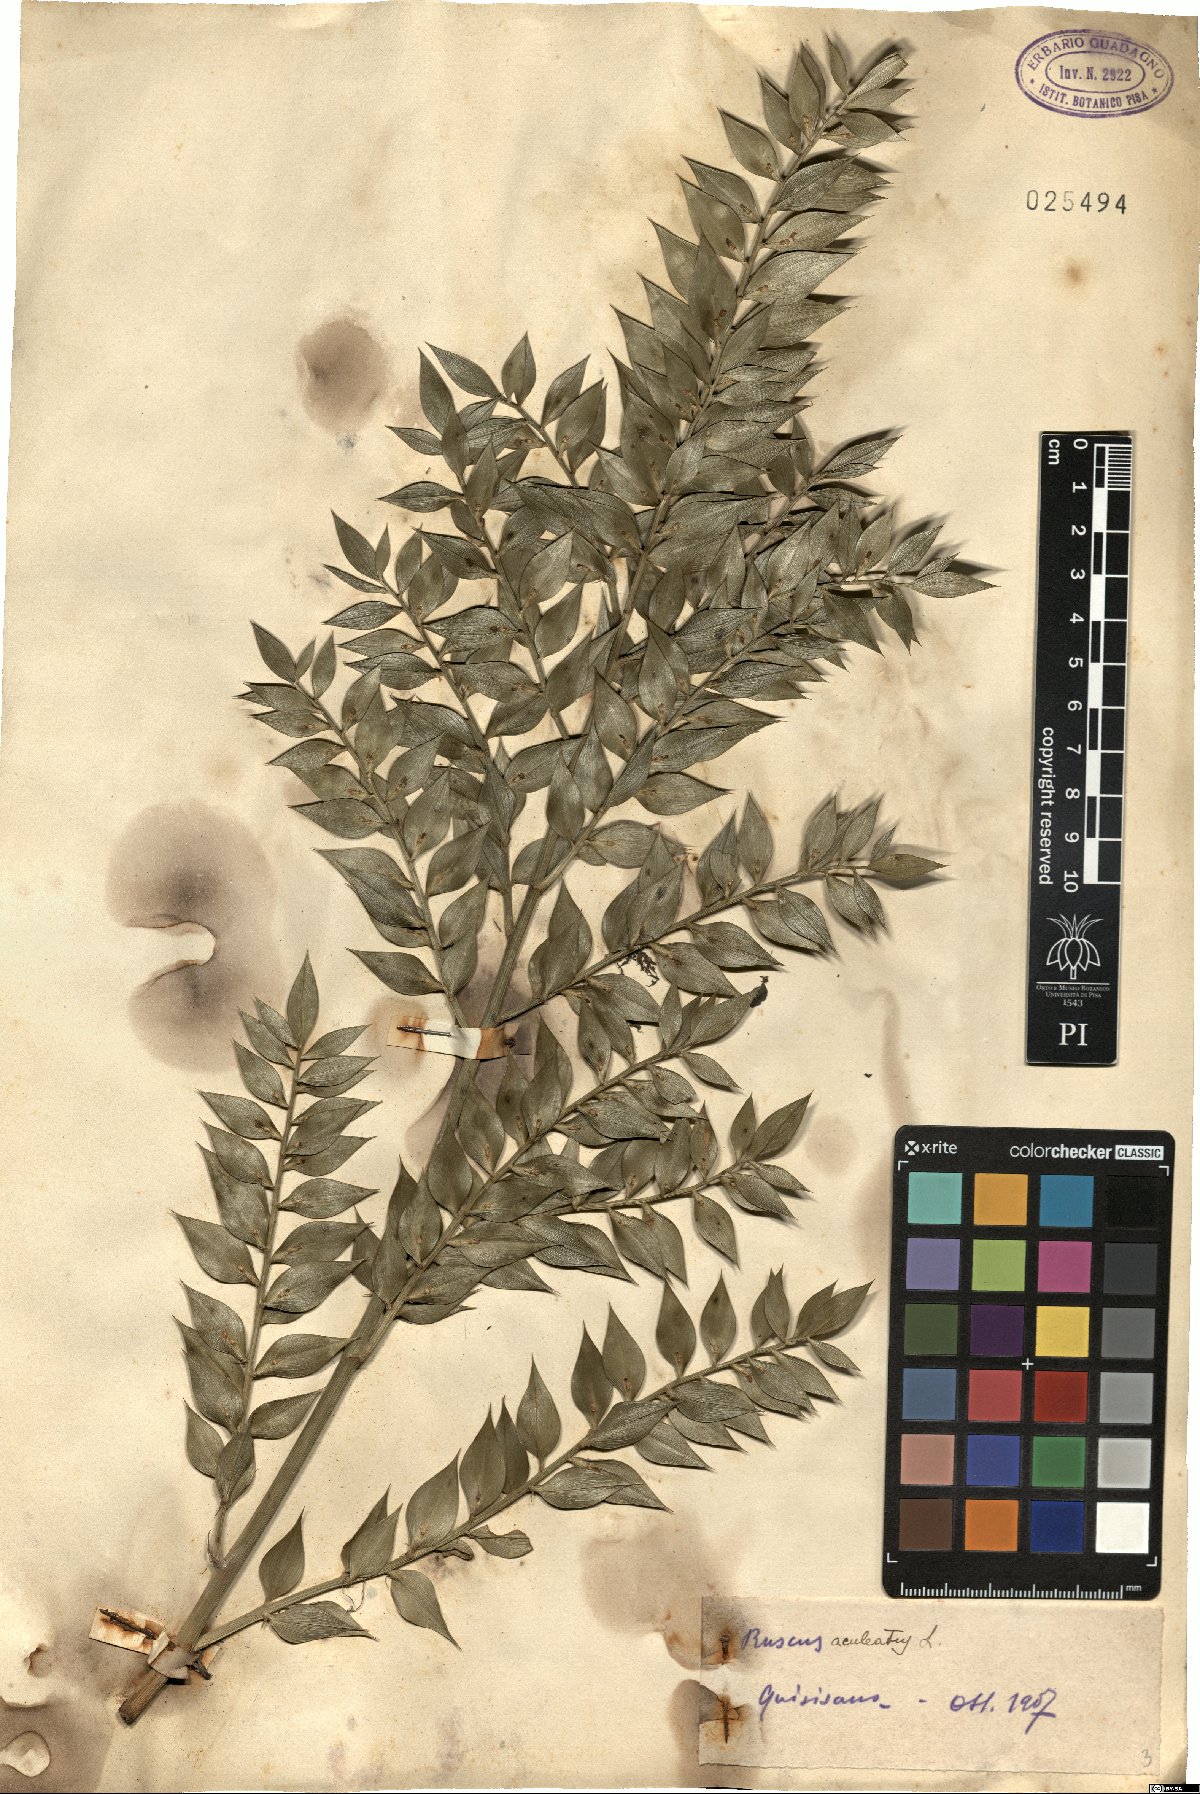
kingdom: Plantae
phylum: Tracheophyta
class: Liliopsida
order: Asparagales
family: Asparagaceae
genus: Ruscus
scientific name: Ruscus aculeatus
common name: Butcher's-broom
